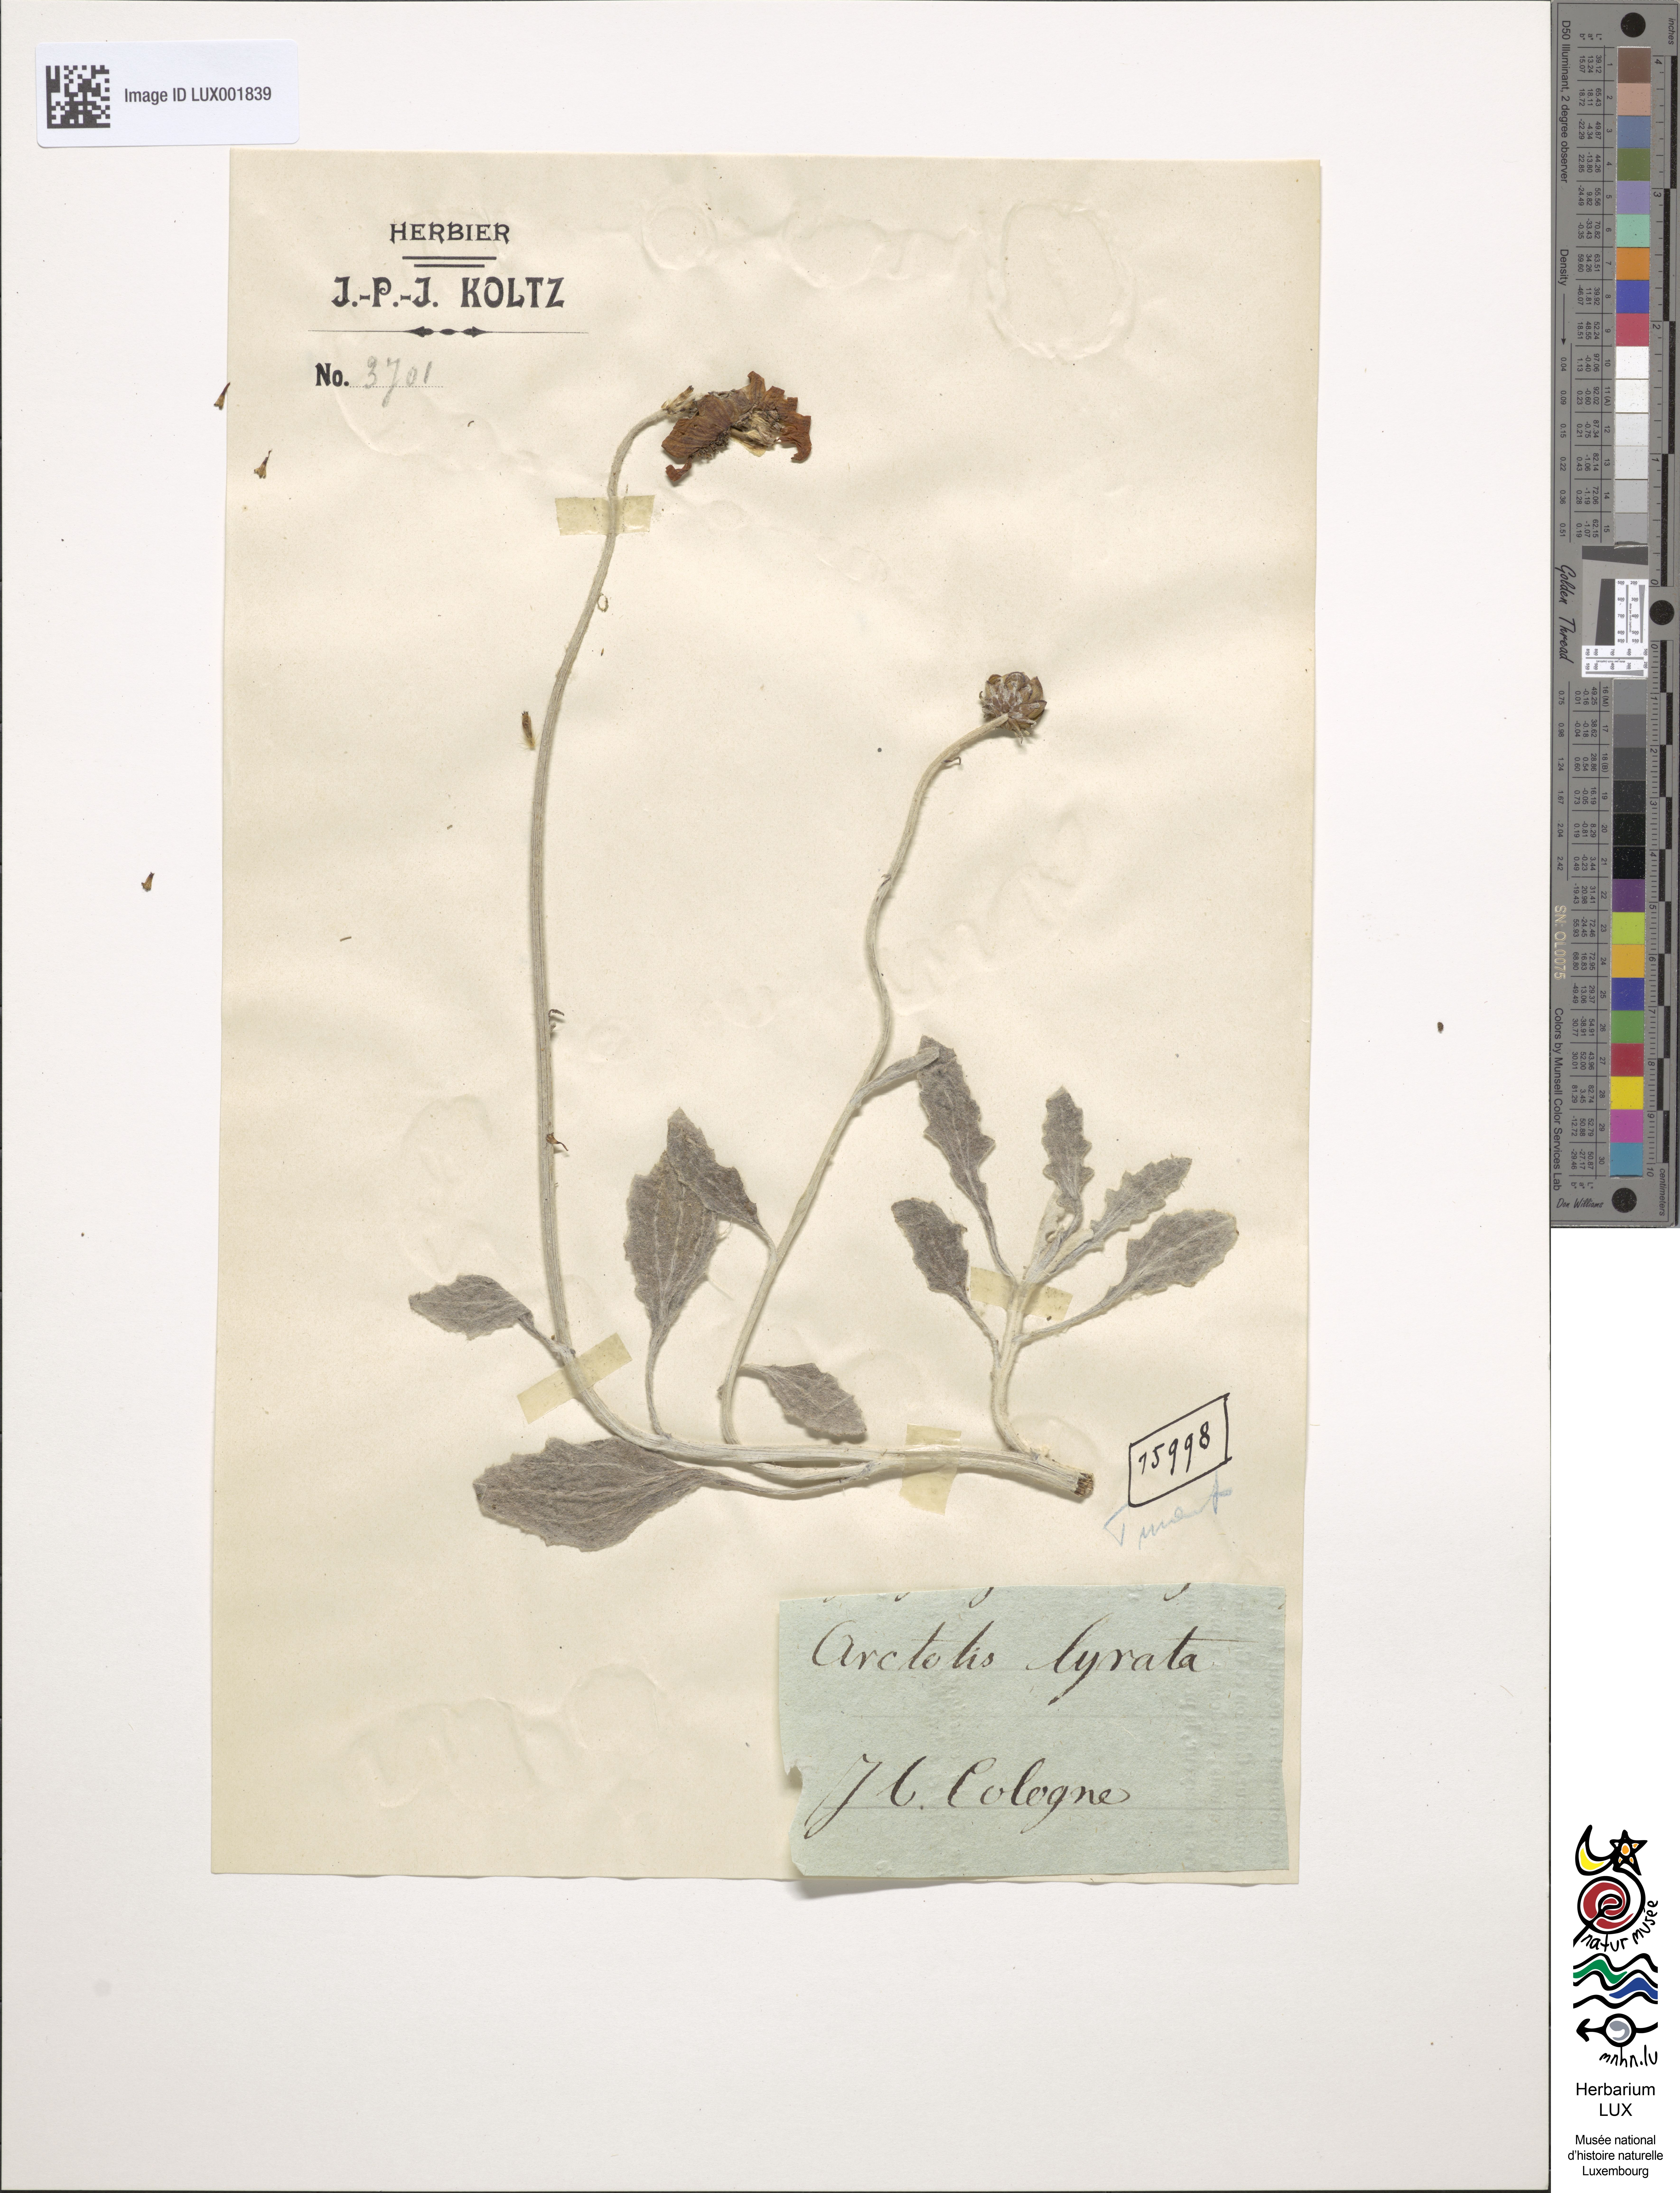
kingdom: Plantae
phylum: Tracheophyta
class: Magnoliopsida
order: Asterales
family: Asteraceae
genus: Arctotis
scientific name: Arctotis aspera
